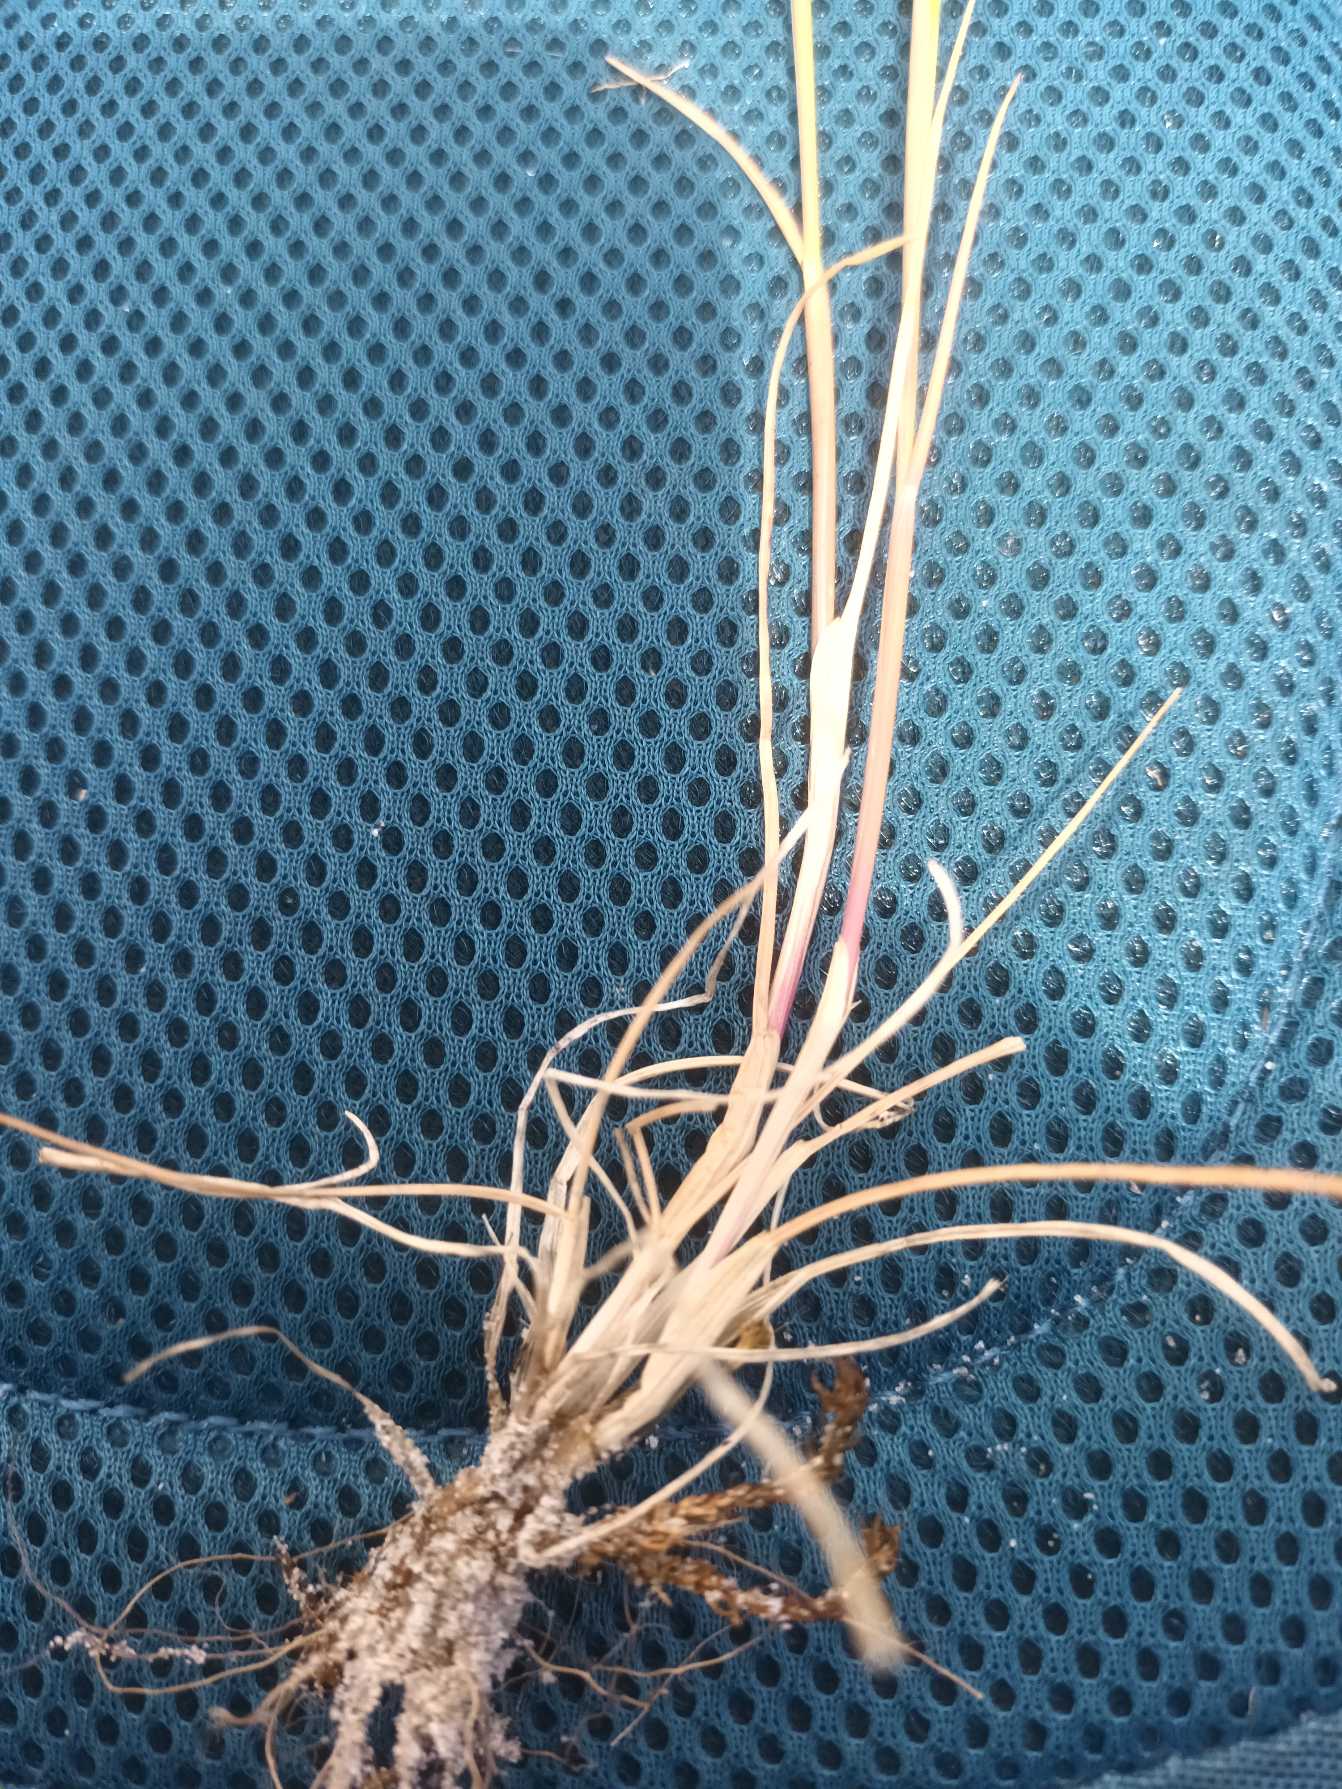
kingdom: Plantae
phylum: Tracheophyta
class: Liliopsida
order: Poales
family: Poaceae
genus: Festuca
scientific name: Festuca fasciculata
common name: Klit-væselhale
